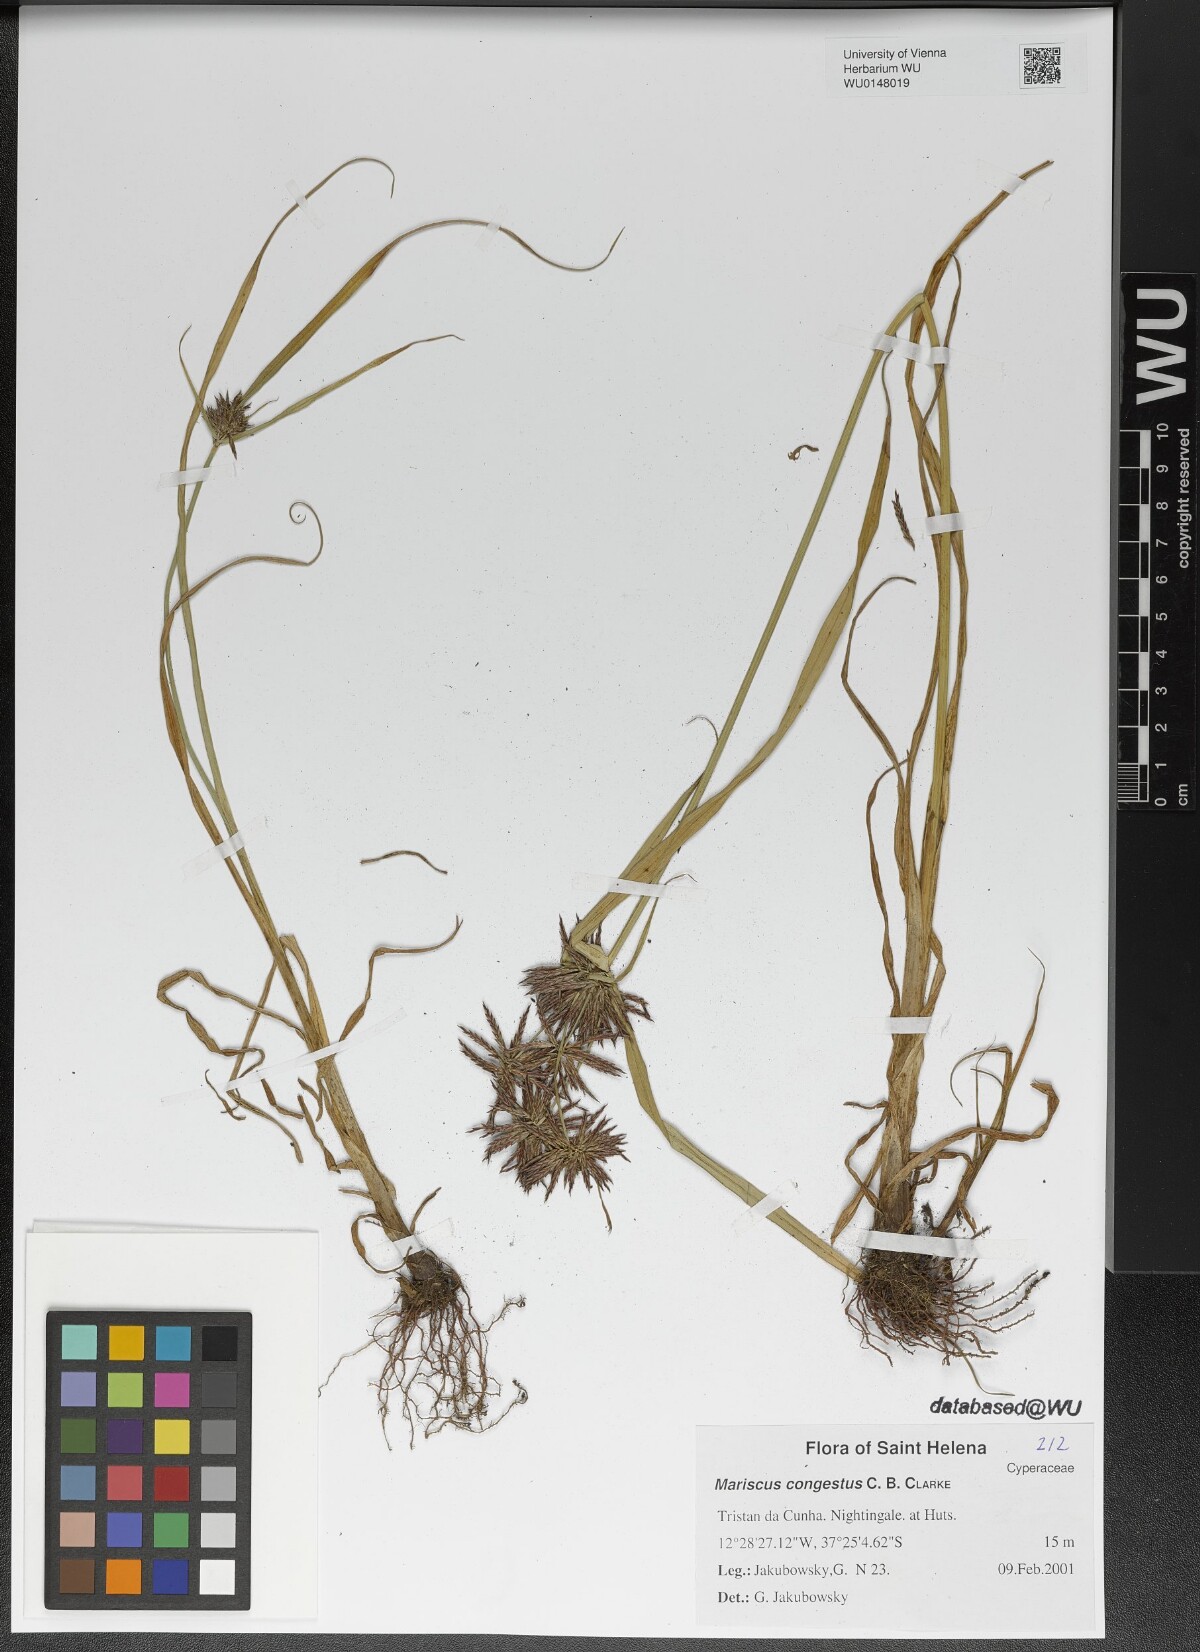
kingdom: Plantae
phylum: Tracheophyta
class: Liliopsida
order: Poales
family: Cyperaceae
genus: Cyperus
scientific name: Cyperus congestus
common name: Dense flat sedge
